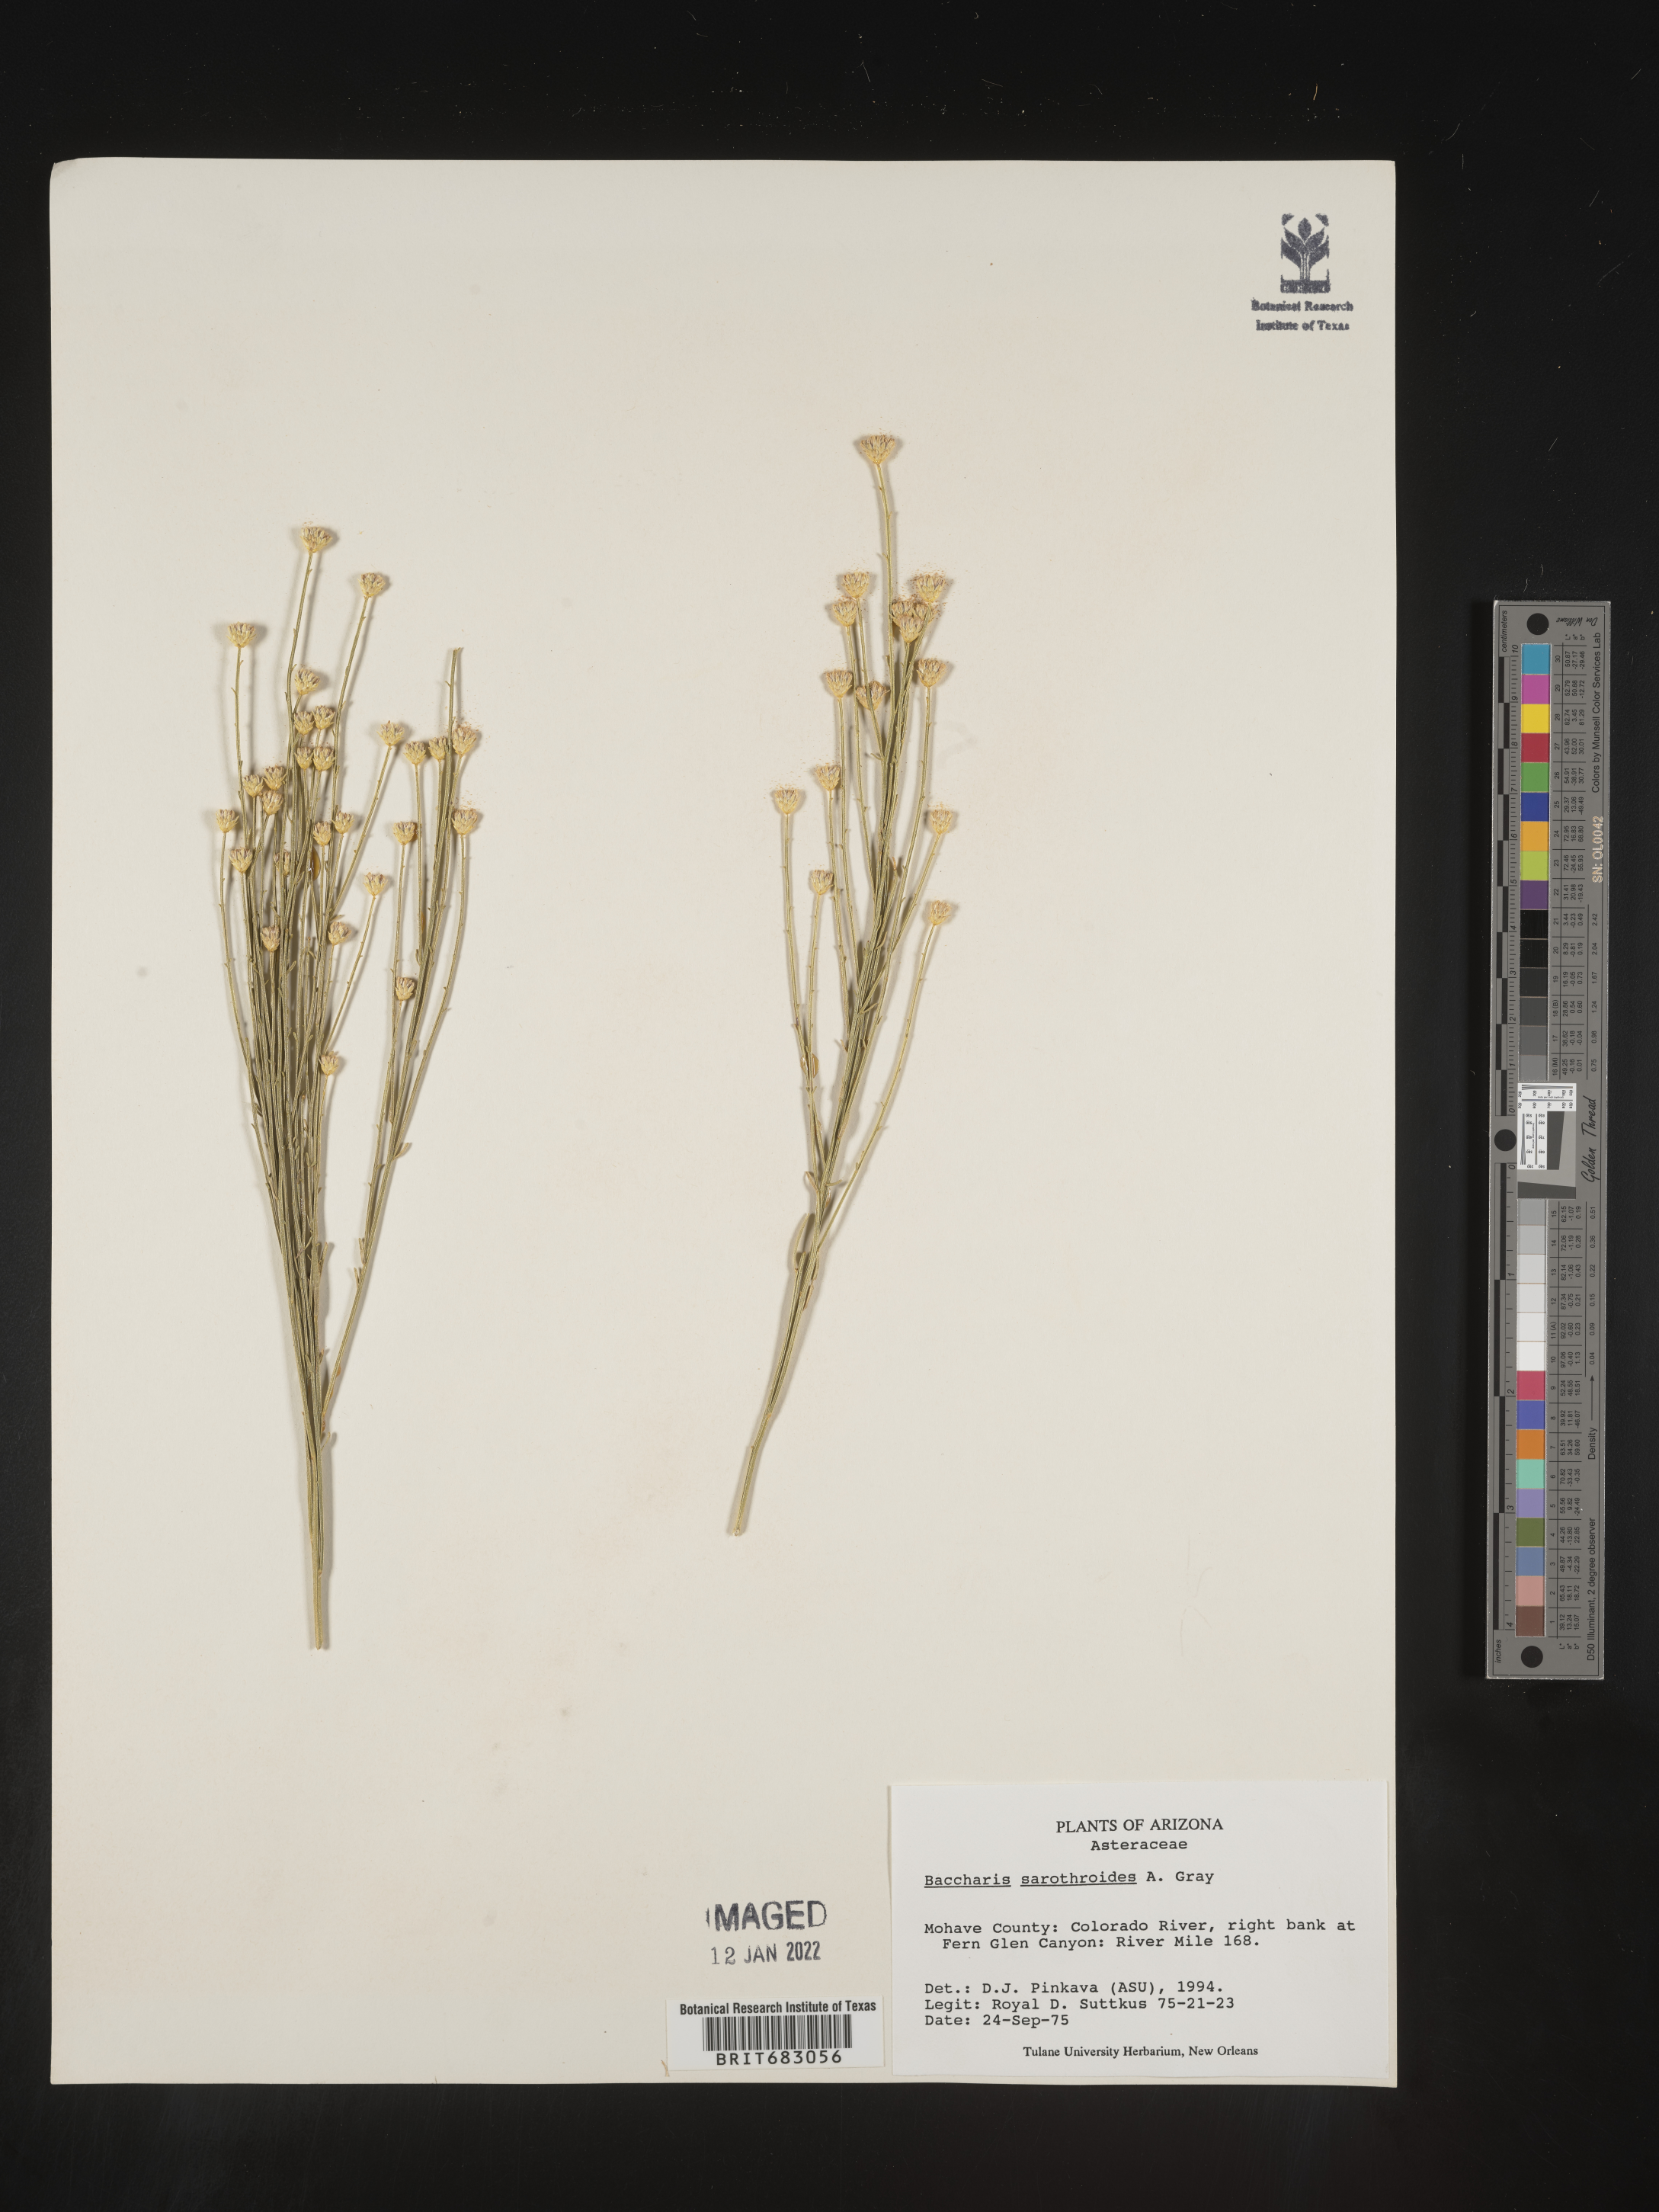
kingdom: Plantae
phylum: Tracheophyta
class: Magnoliopsida
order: Asterales
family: Asteraceae
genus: Baccharis
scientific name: Baccharis sarothroides
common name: Desert-broom
